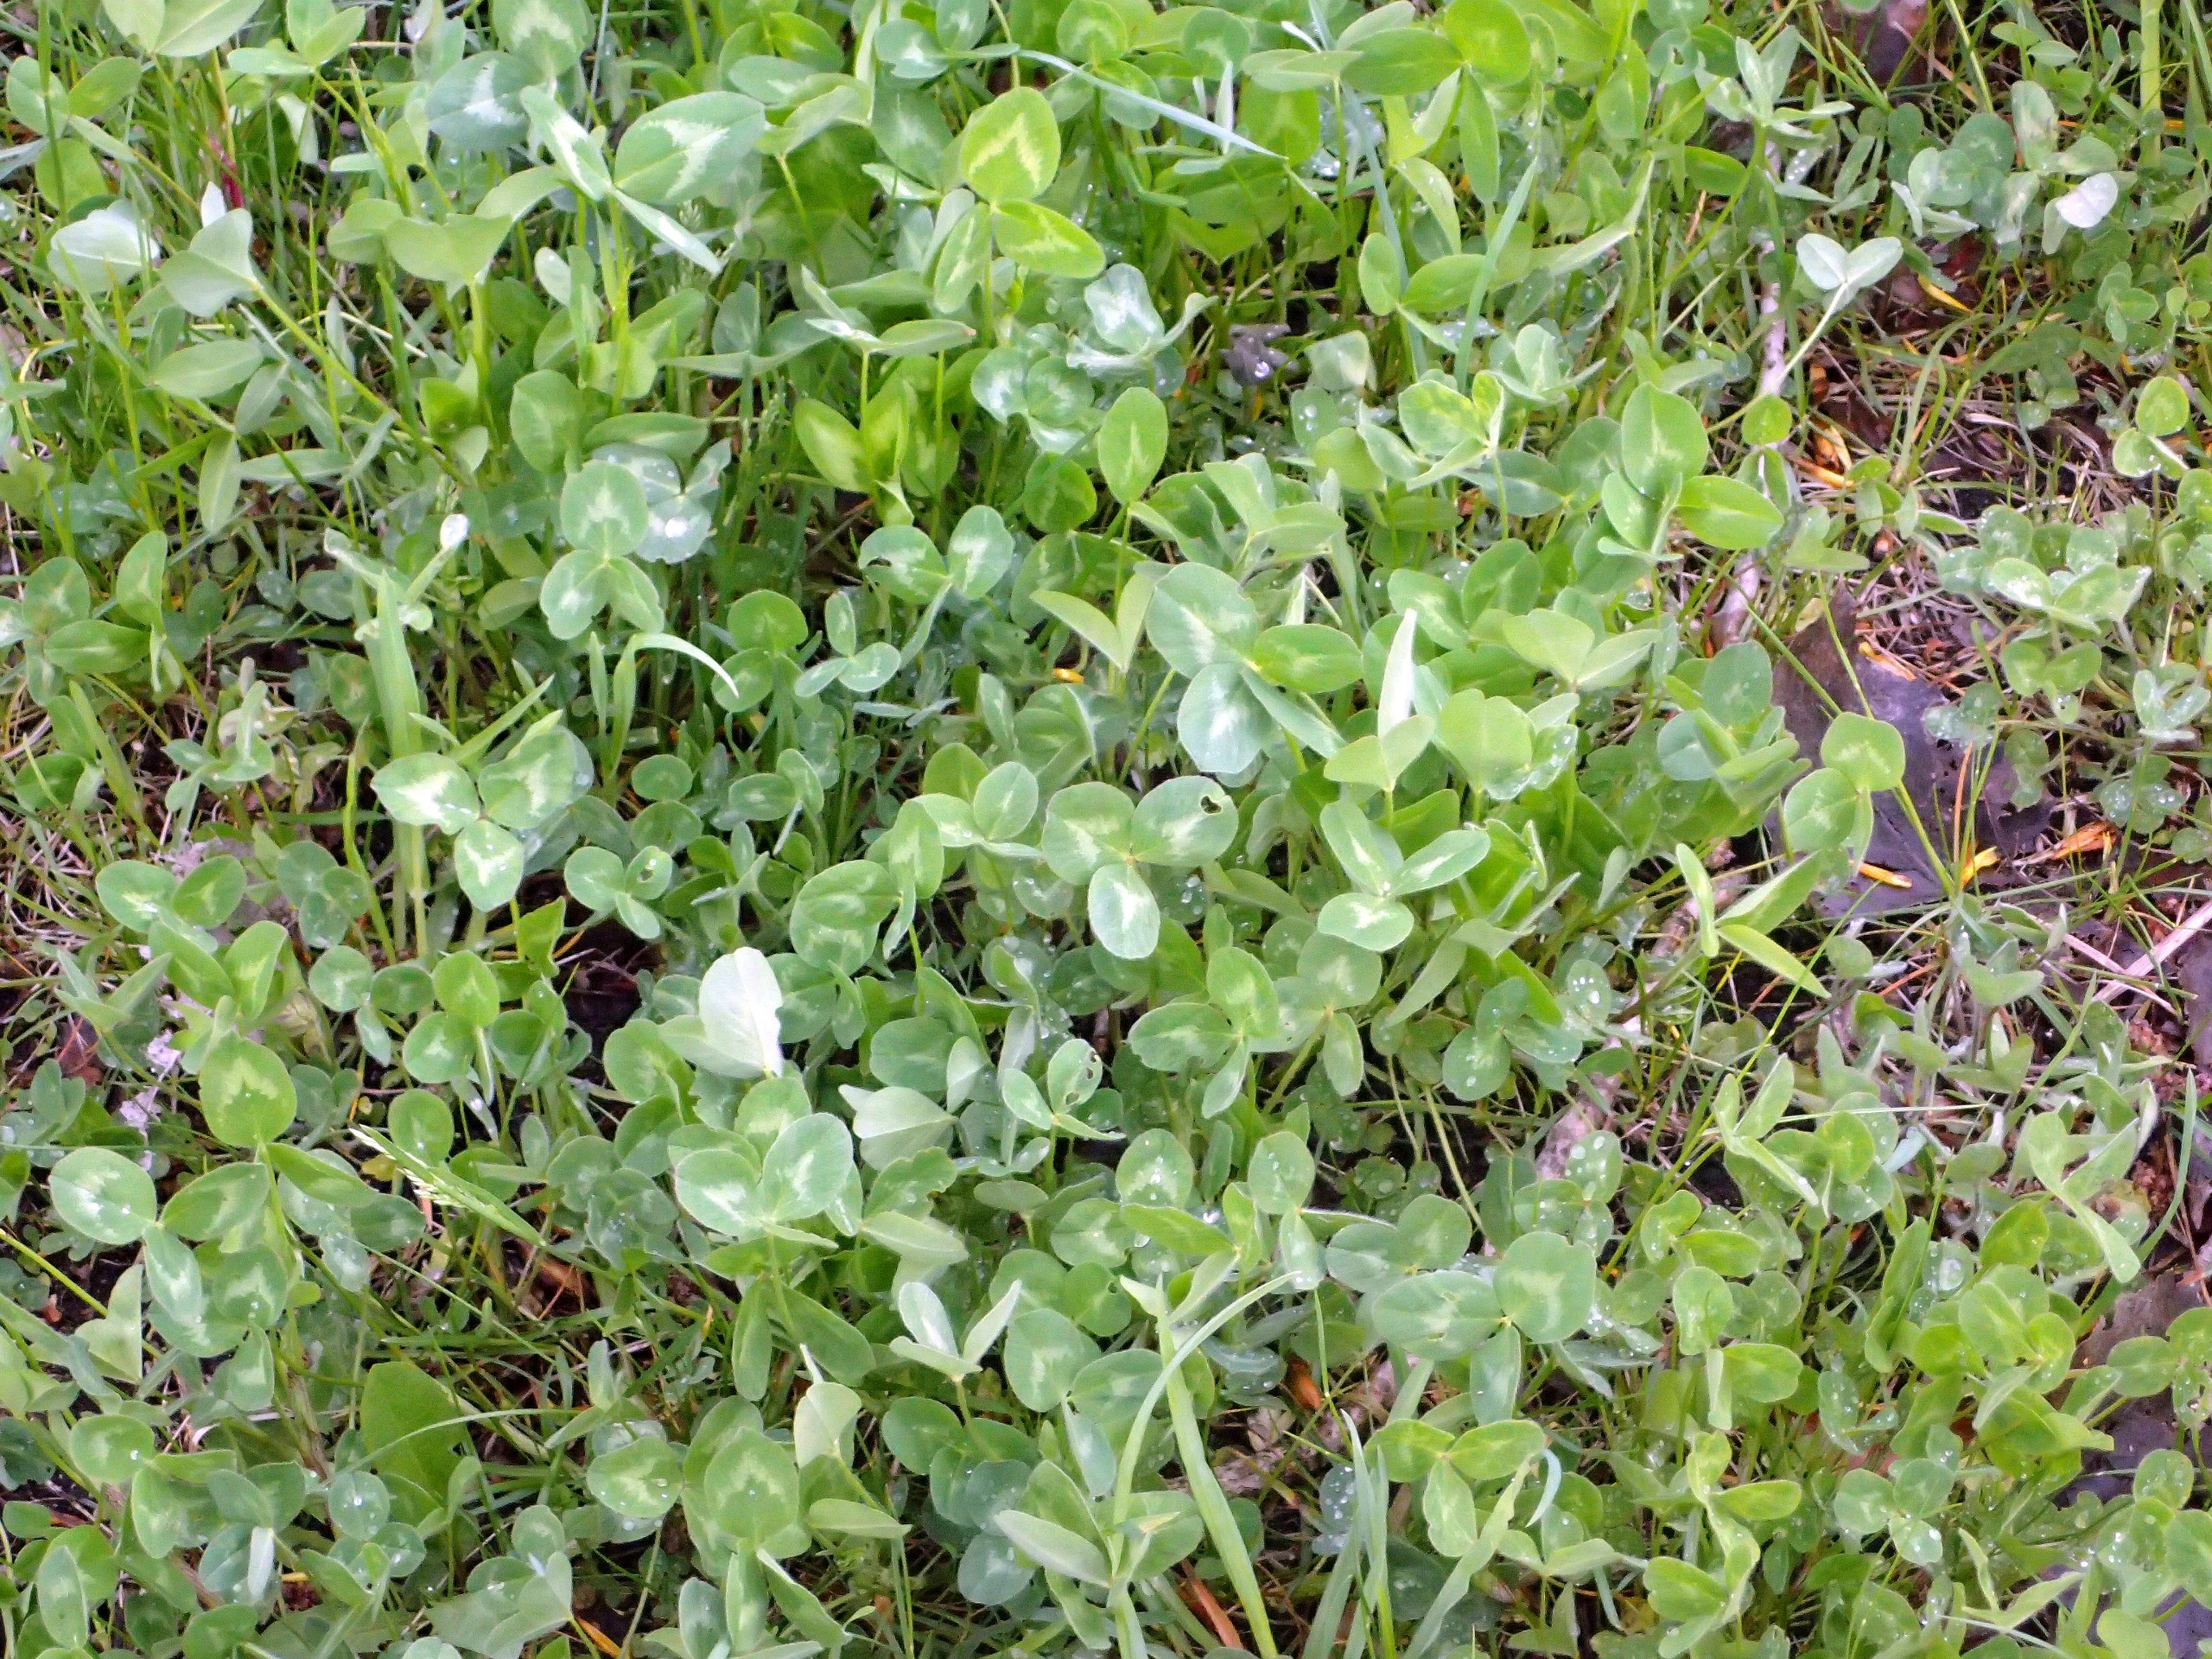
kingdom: Plantae
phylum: Tracheophyta
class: Magnoliopsida
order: Fabales
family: Fabaceae
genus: Trifolium
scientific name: Trifolium pratense
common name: Rød-kløver
